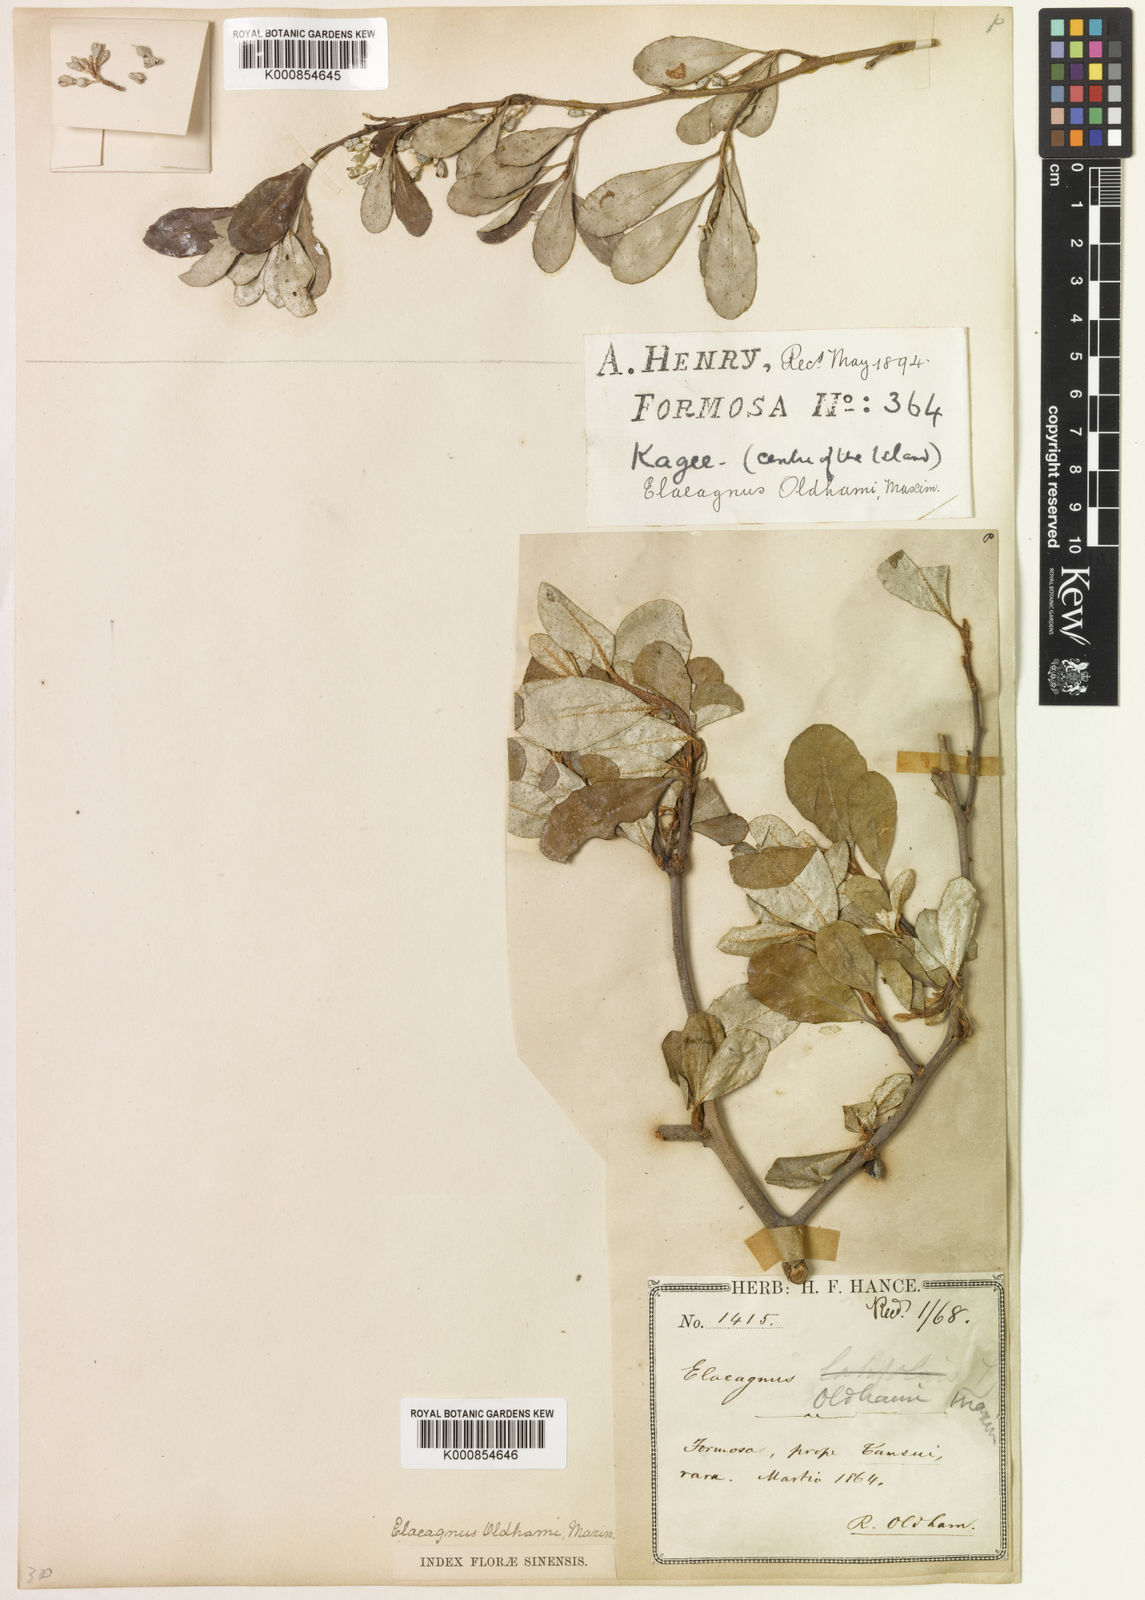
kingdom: Plantae
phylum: Tracheophyta
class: Magnoliopsida
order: Rosales
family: Elaeagnaceae
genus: Elaeagnus
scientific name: Elaeagnus oldhamii
